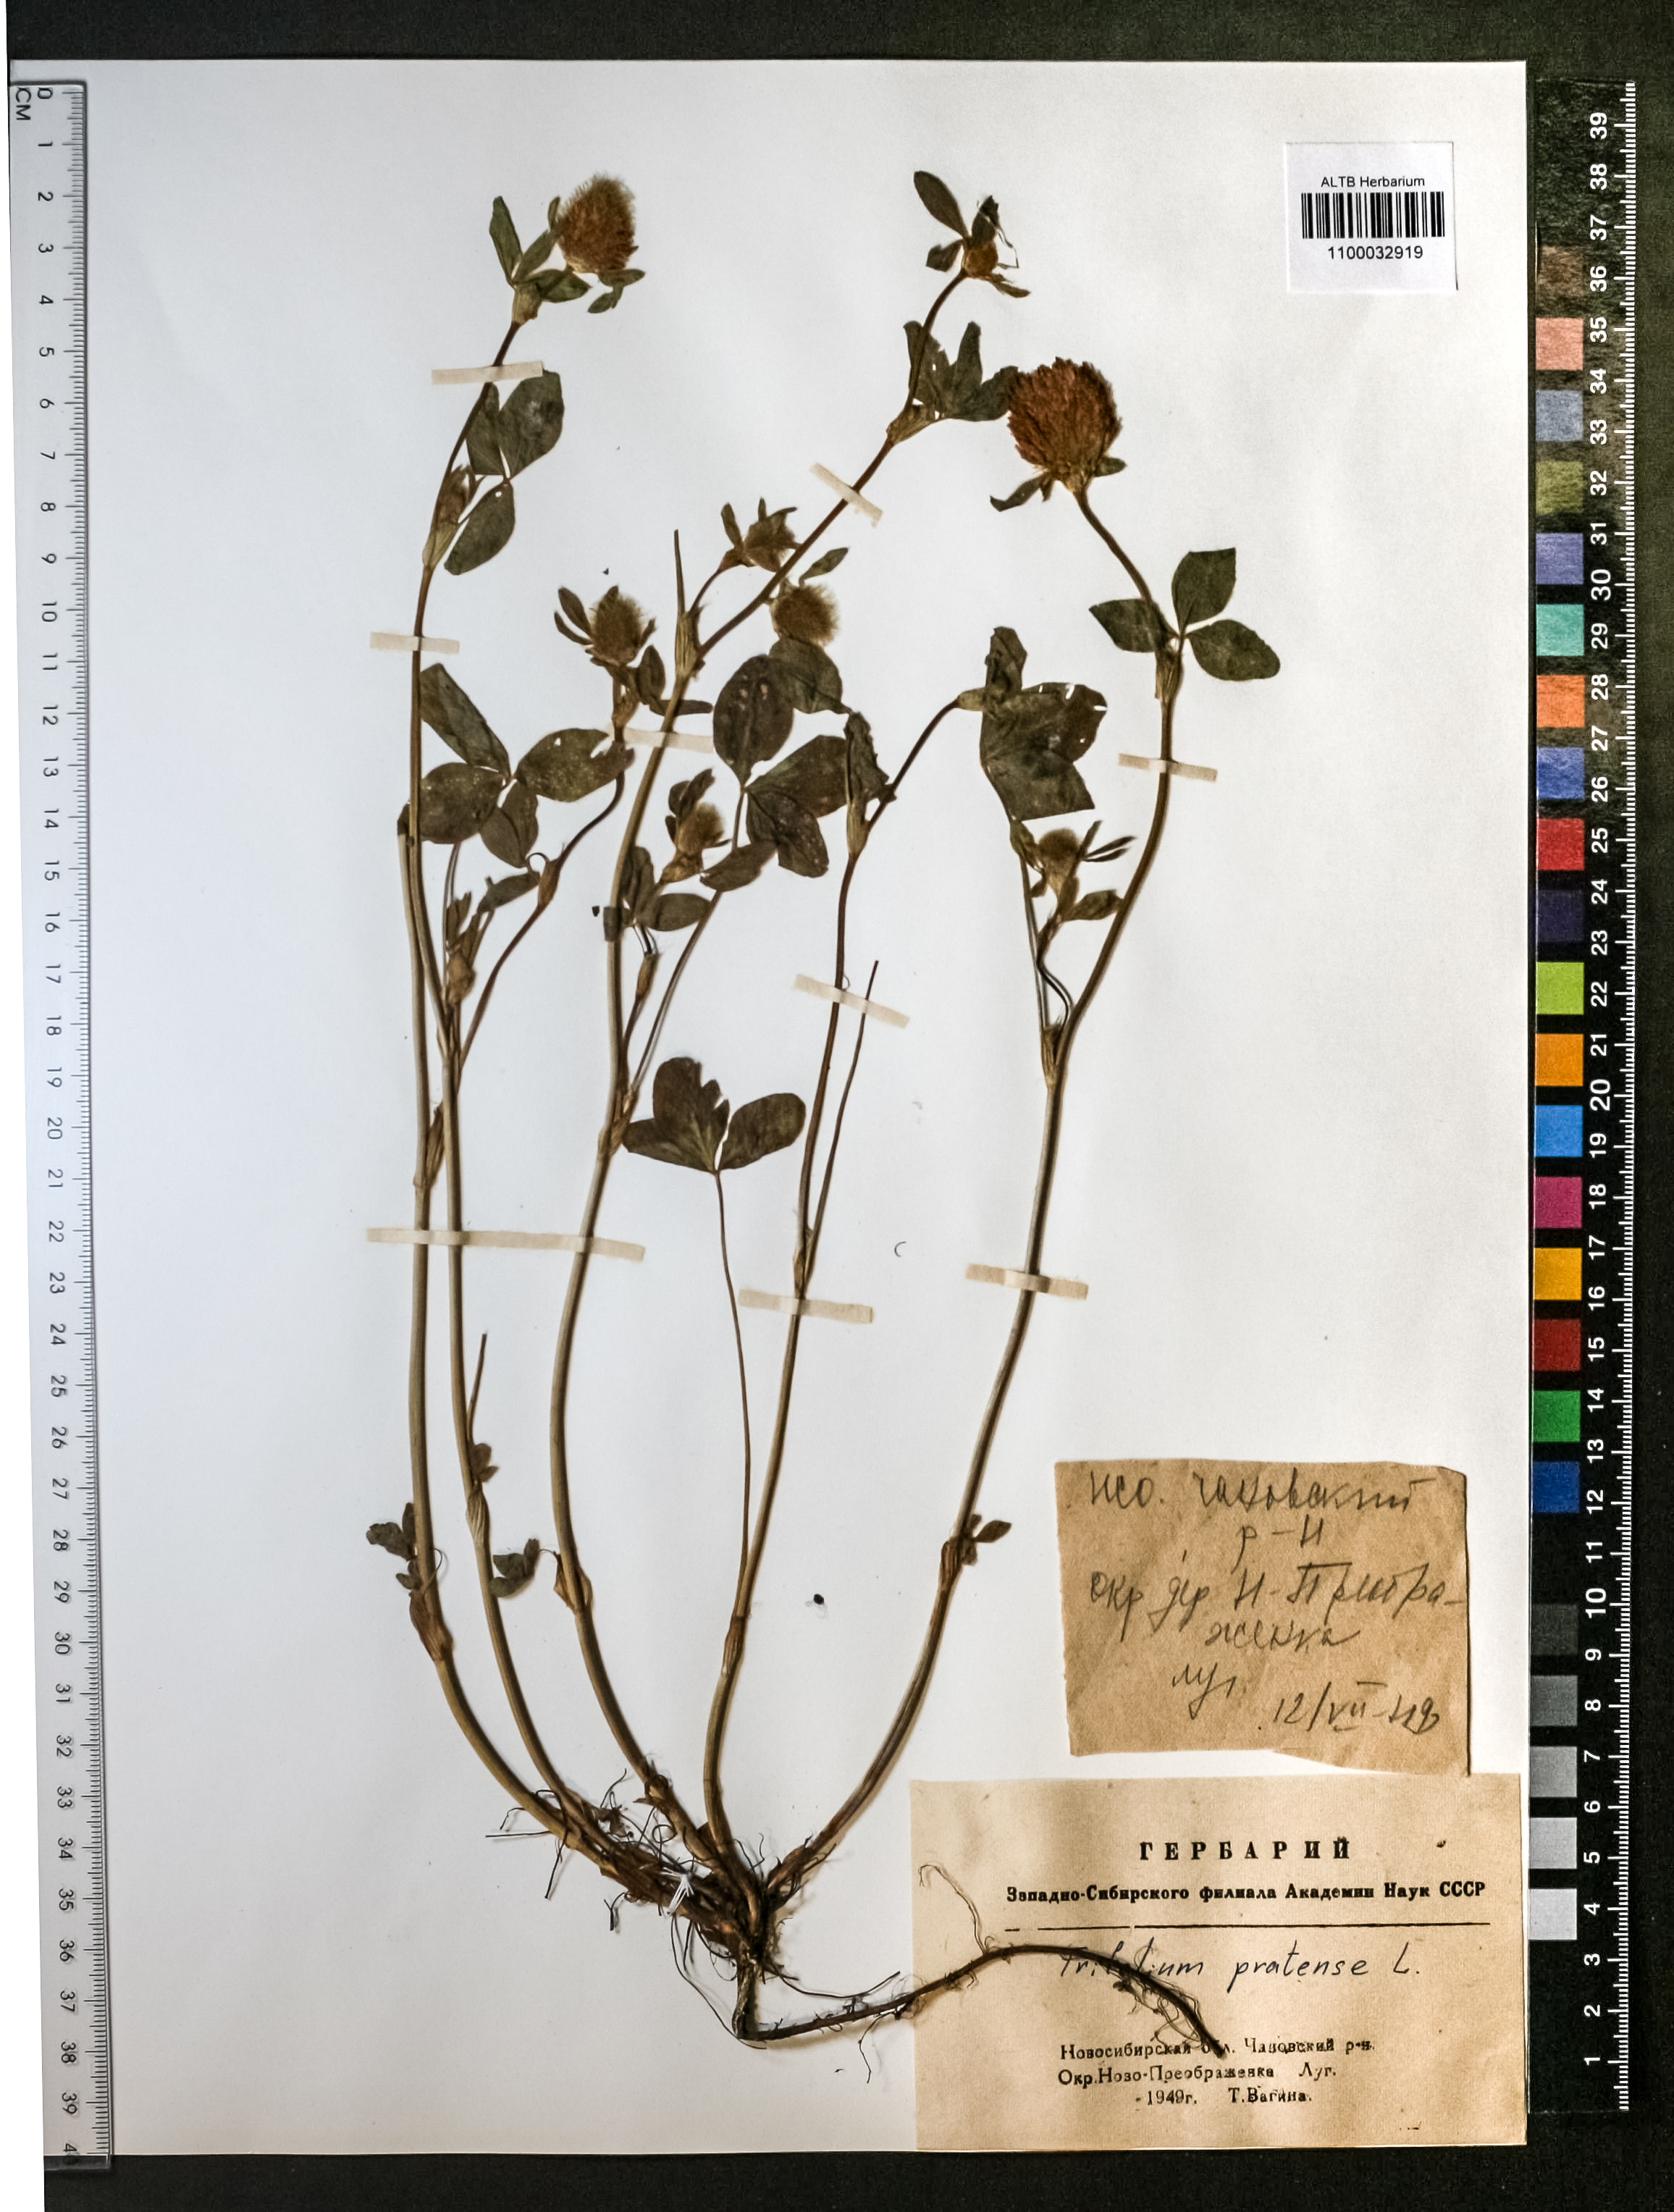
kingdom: Plantae
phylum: Tracheophyta
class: Magnoliopsida
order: Fabales
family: Fabaceae
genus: Trifolium
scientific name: Trifolium pratense
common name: Red clover
